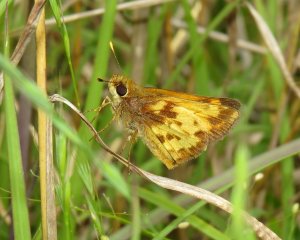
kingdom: Animalia
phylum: Arthropoda
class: Insecta
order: Lepidoptera
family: Hesperiidae
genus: Lon
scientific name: Lon zabulon
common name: Zabulon Skipper
